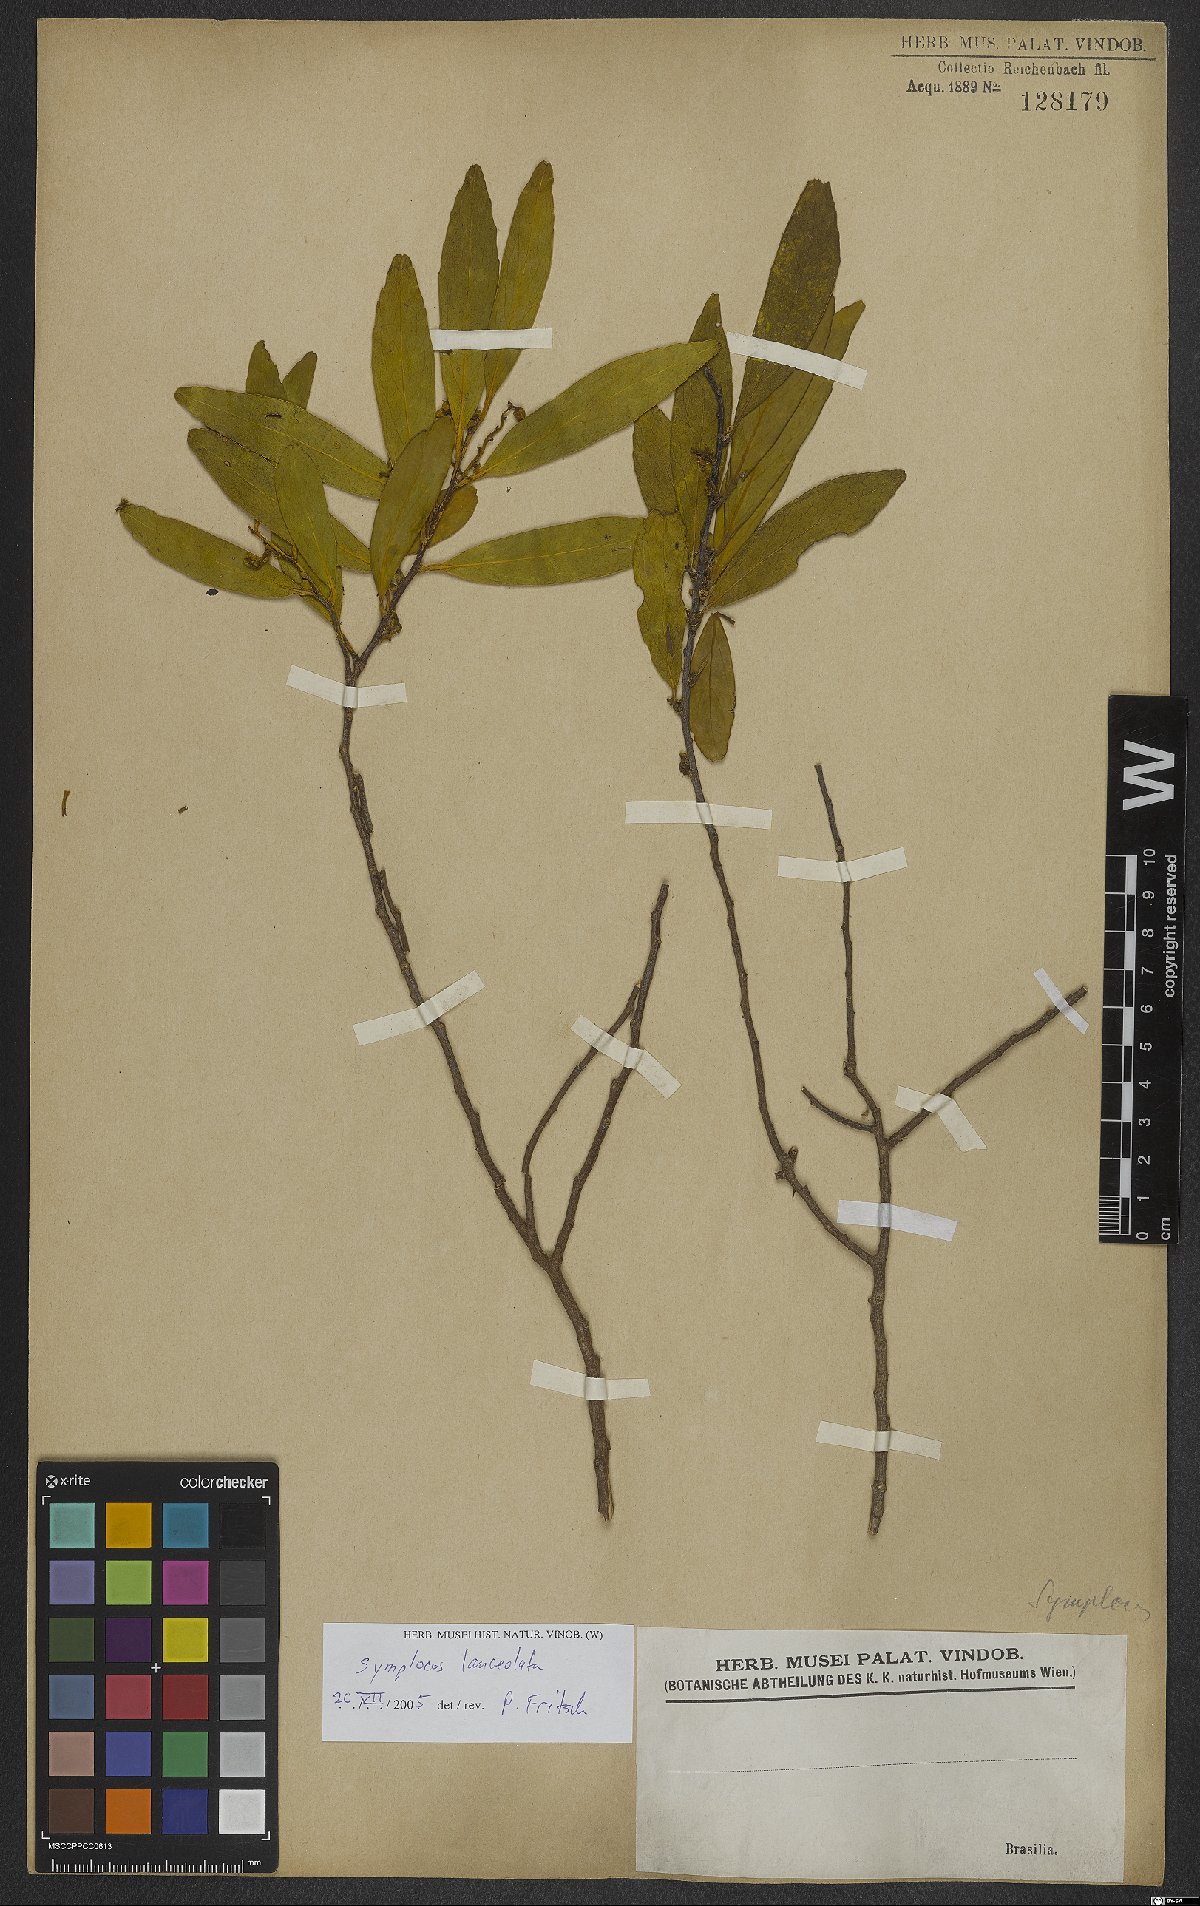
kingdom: Plantae
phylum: Tracheophyta
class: Magnoliopsida
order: Ericales
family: Symplocaceae
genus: Symplocos
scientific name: Symplocos oblongifolia
